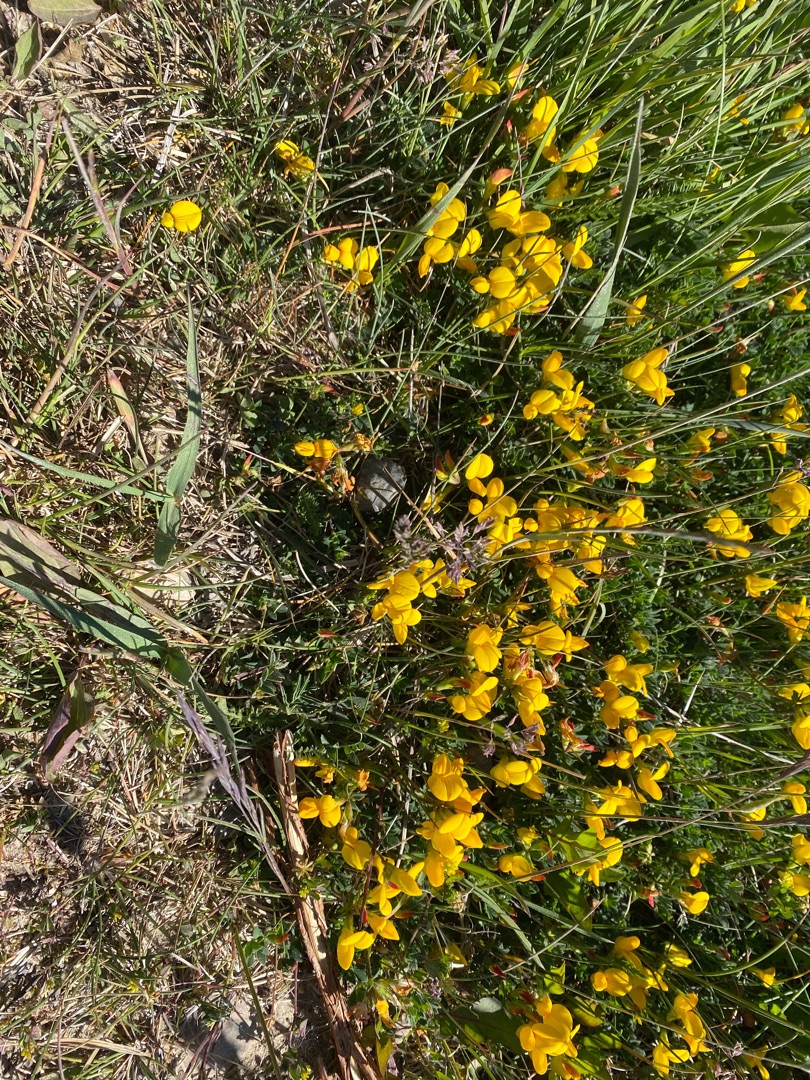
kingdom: Plantae
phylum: Tracheophyta
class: Magnoliopsida
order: Fabales
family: Fabaceae
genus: Lotus
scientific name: Lotus corniculatus
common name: Almindelig kællingetand
